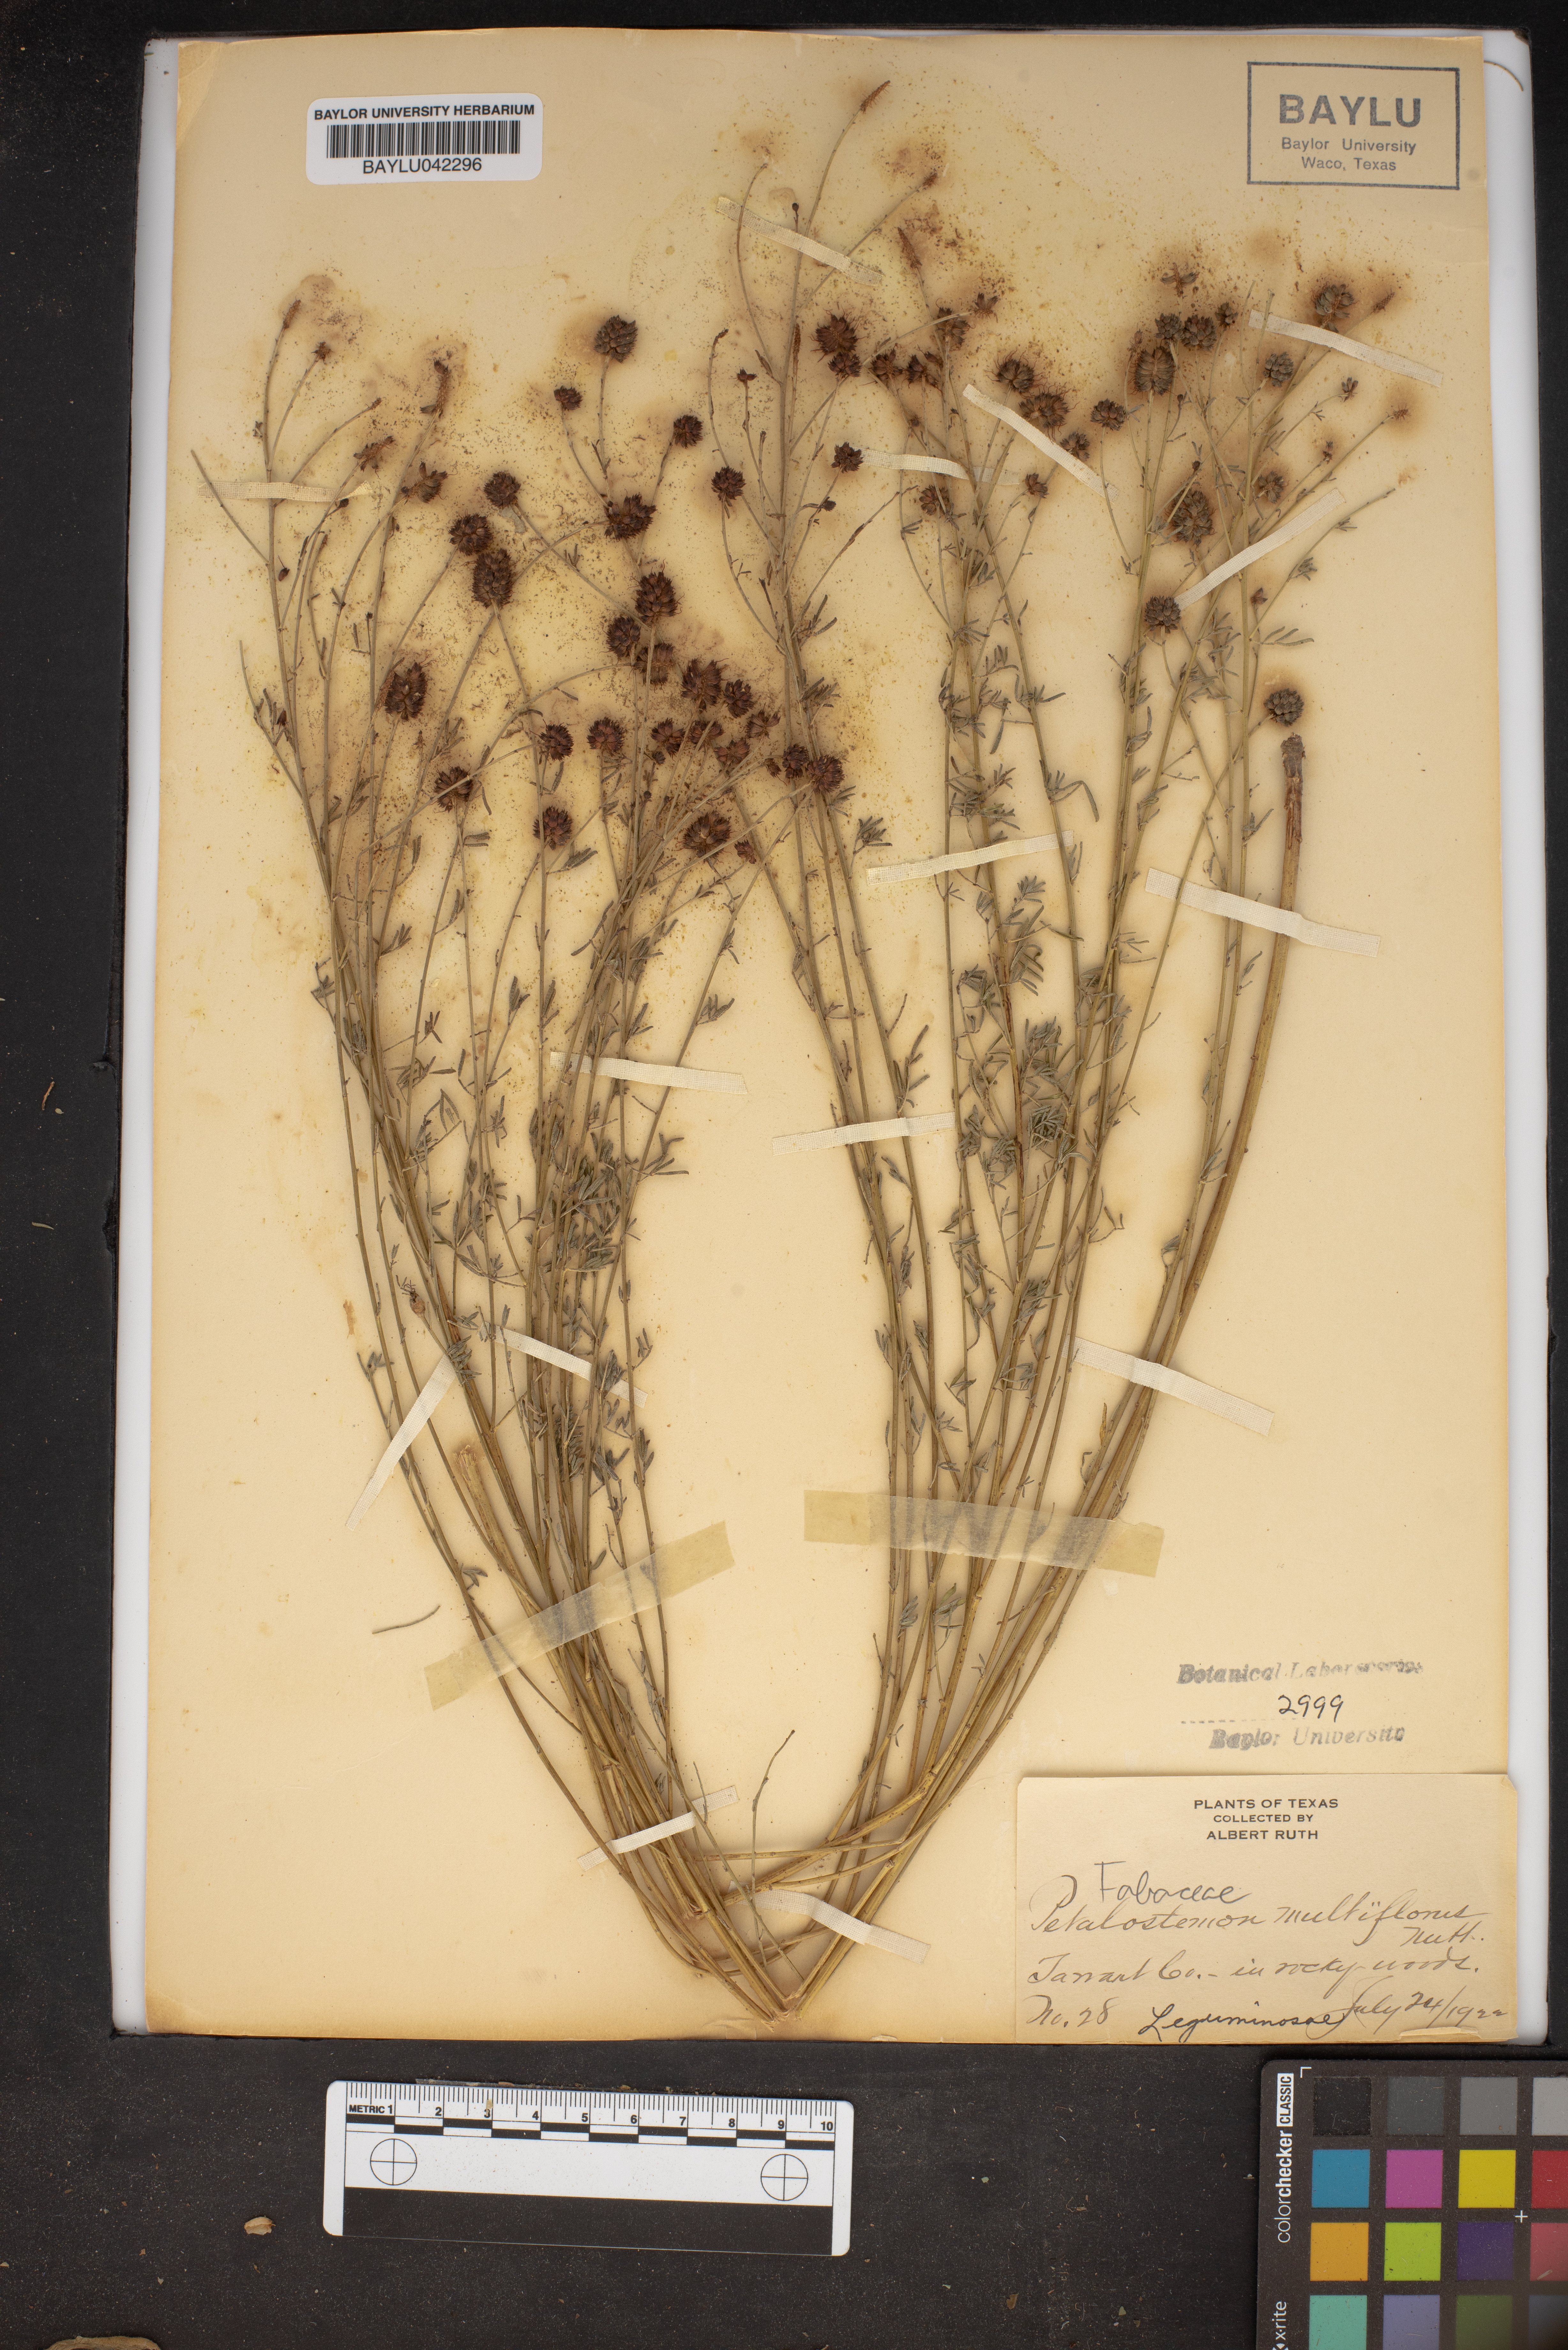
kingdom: Plantae
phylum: Tracheophyta
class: Magnoliopsida
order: Fabales
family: Fabaceae
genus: Dalea
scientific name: Dalea multiflora
